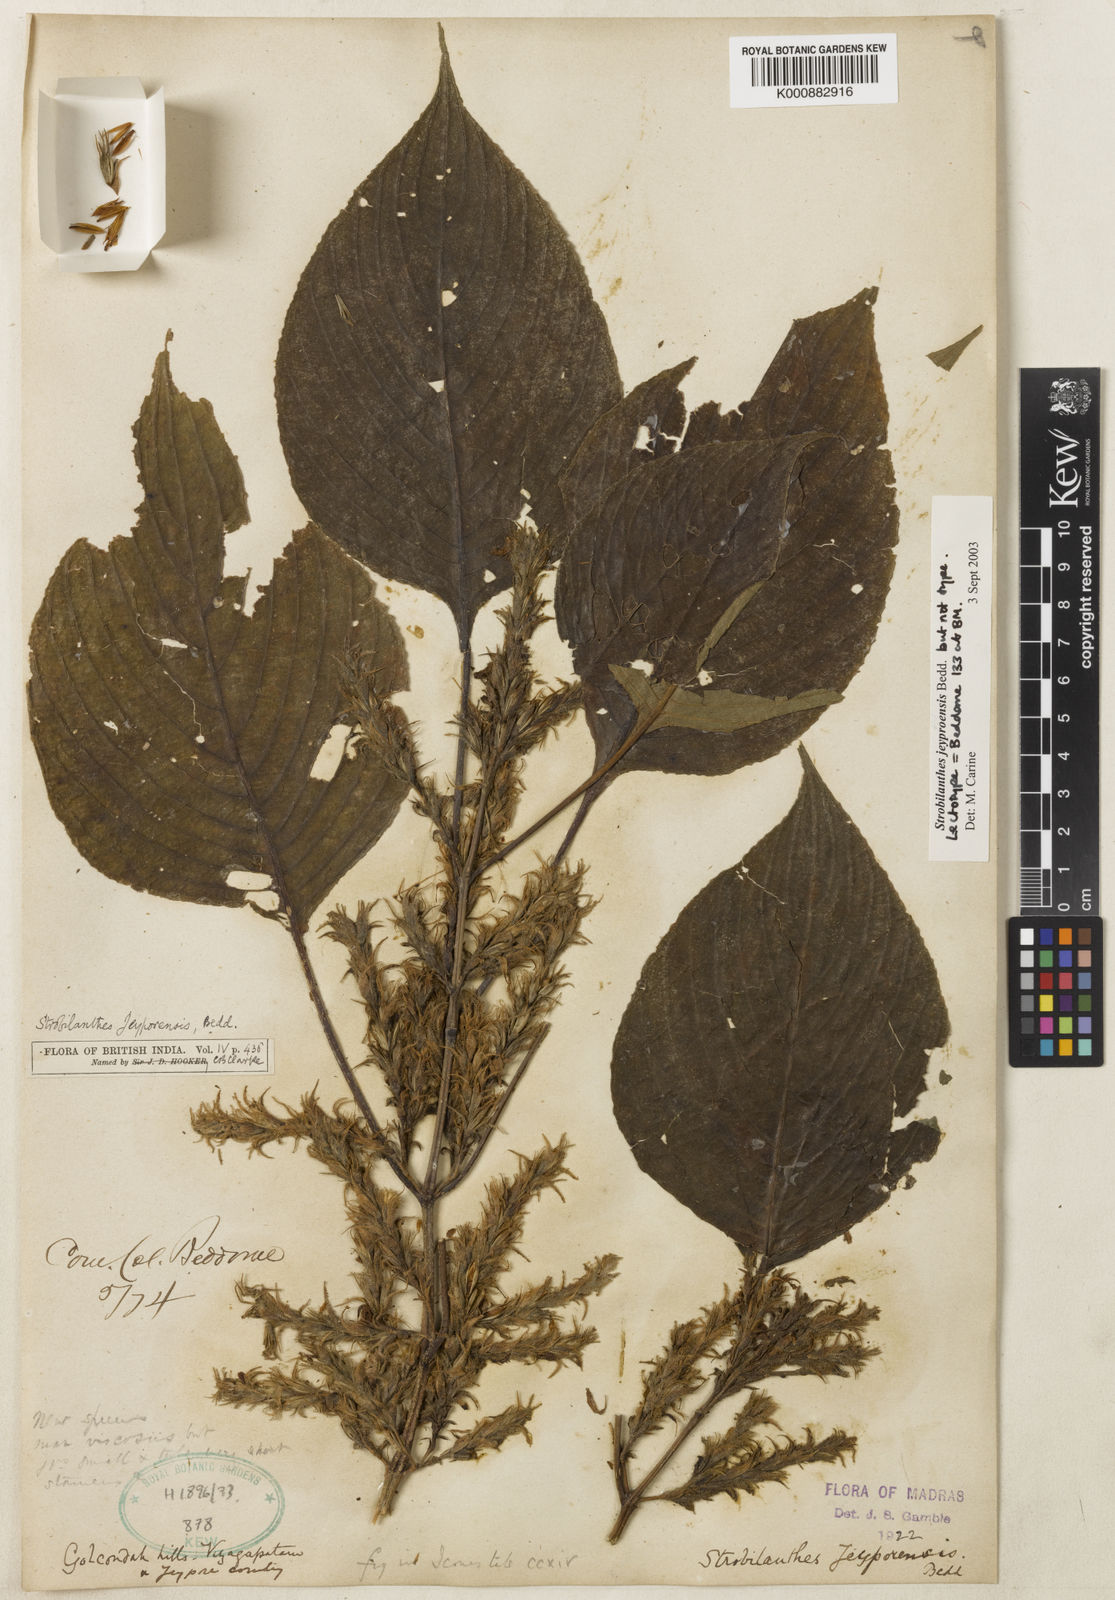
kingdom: Plantae
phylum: Tracheophyta
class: Magnoliopsida
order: Lamiales
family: Acanthaceae
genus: Strobilanthes
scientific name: Strobilanthes jeyporensis
